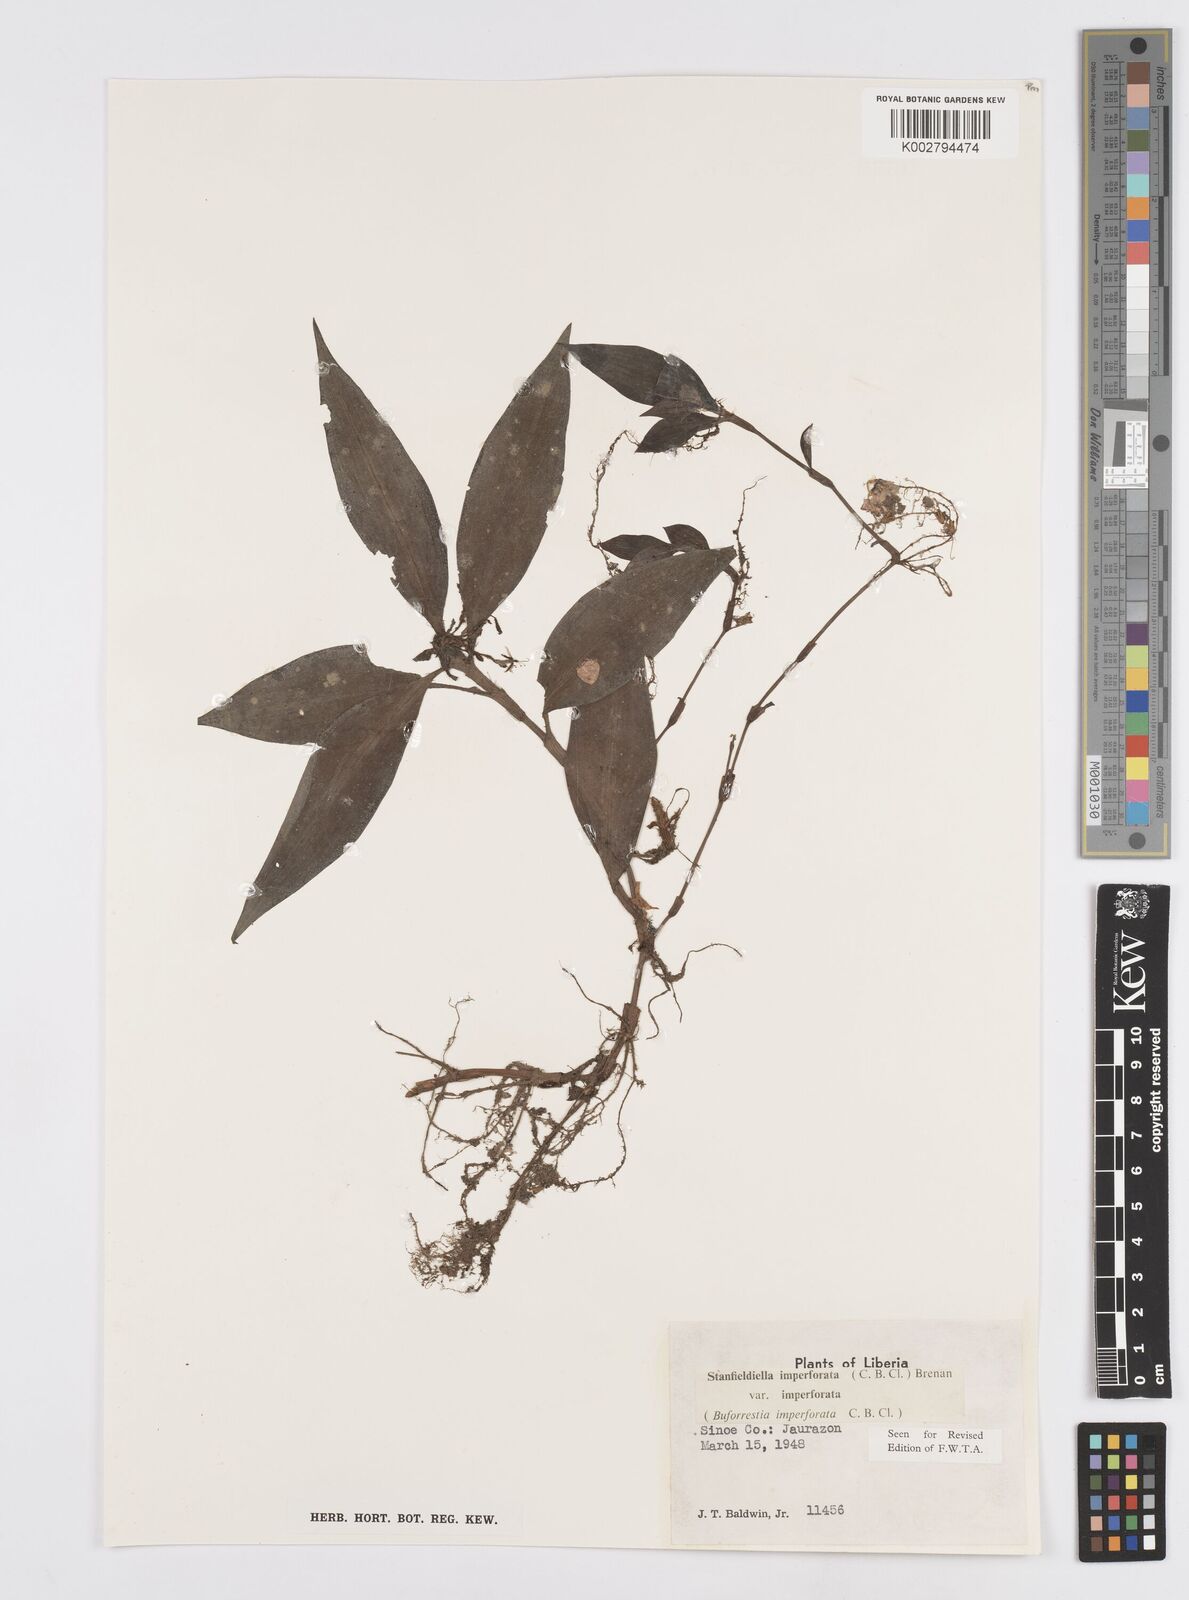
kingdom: Plantae
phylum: Tracheophyta
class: Liliopsida
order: Commelinales
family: Commelinaceae
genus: Stanfieldiella
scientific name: Stanfieldiella imperforata
